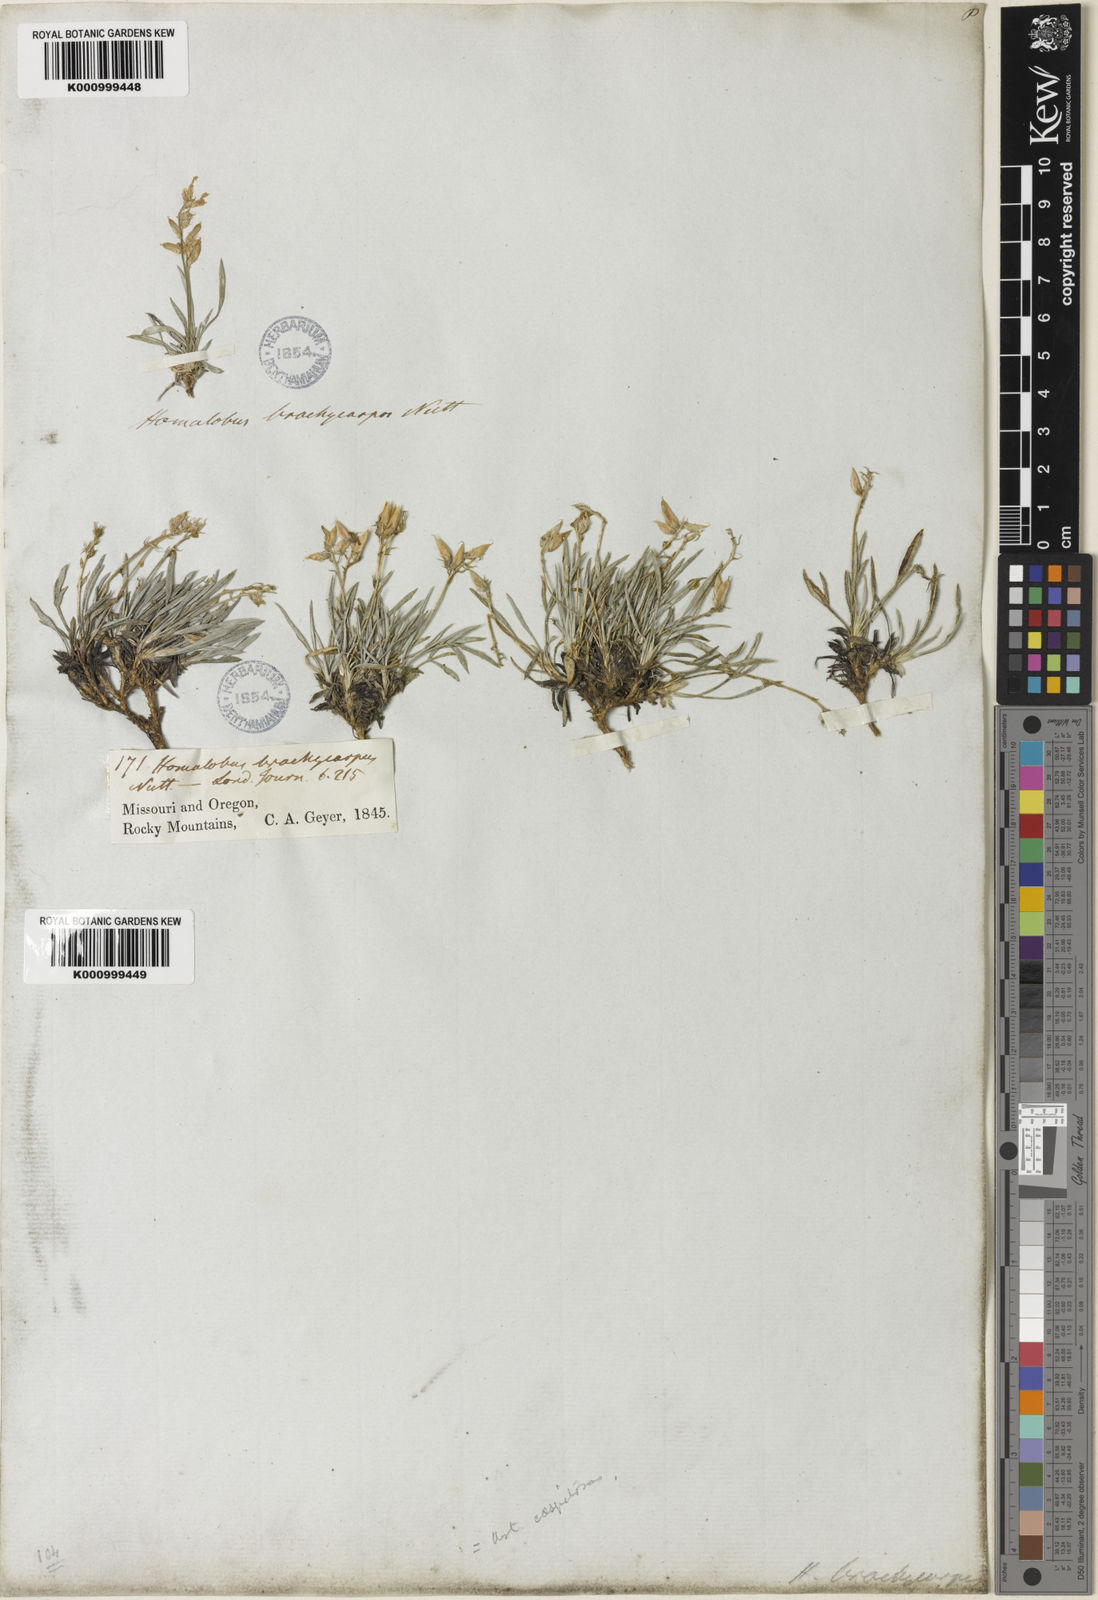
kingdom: Plantae
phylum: Tracheophyta
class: Magnoliopsida
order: Fabales
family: Fabaceae
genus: Oxytropis
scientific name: Oxytropis caespitosa
